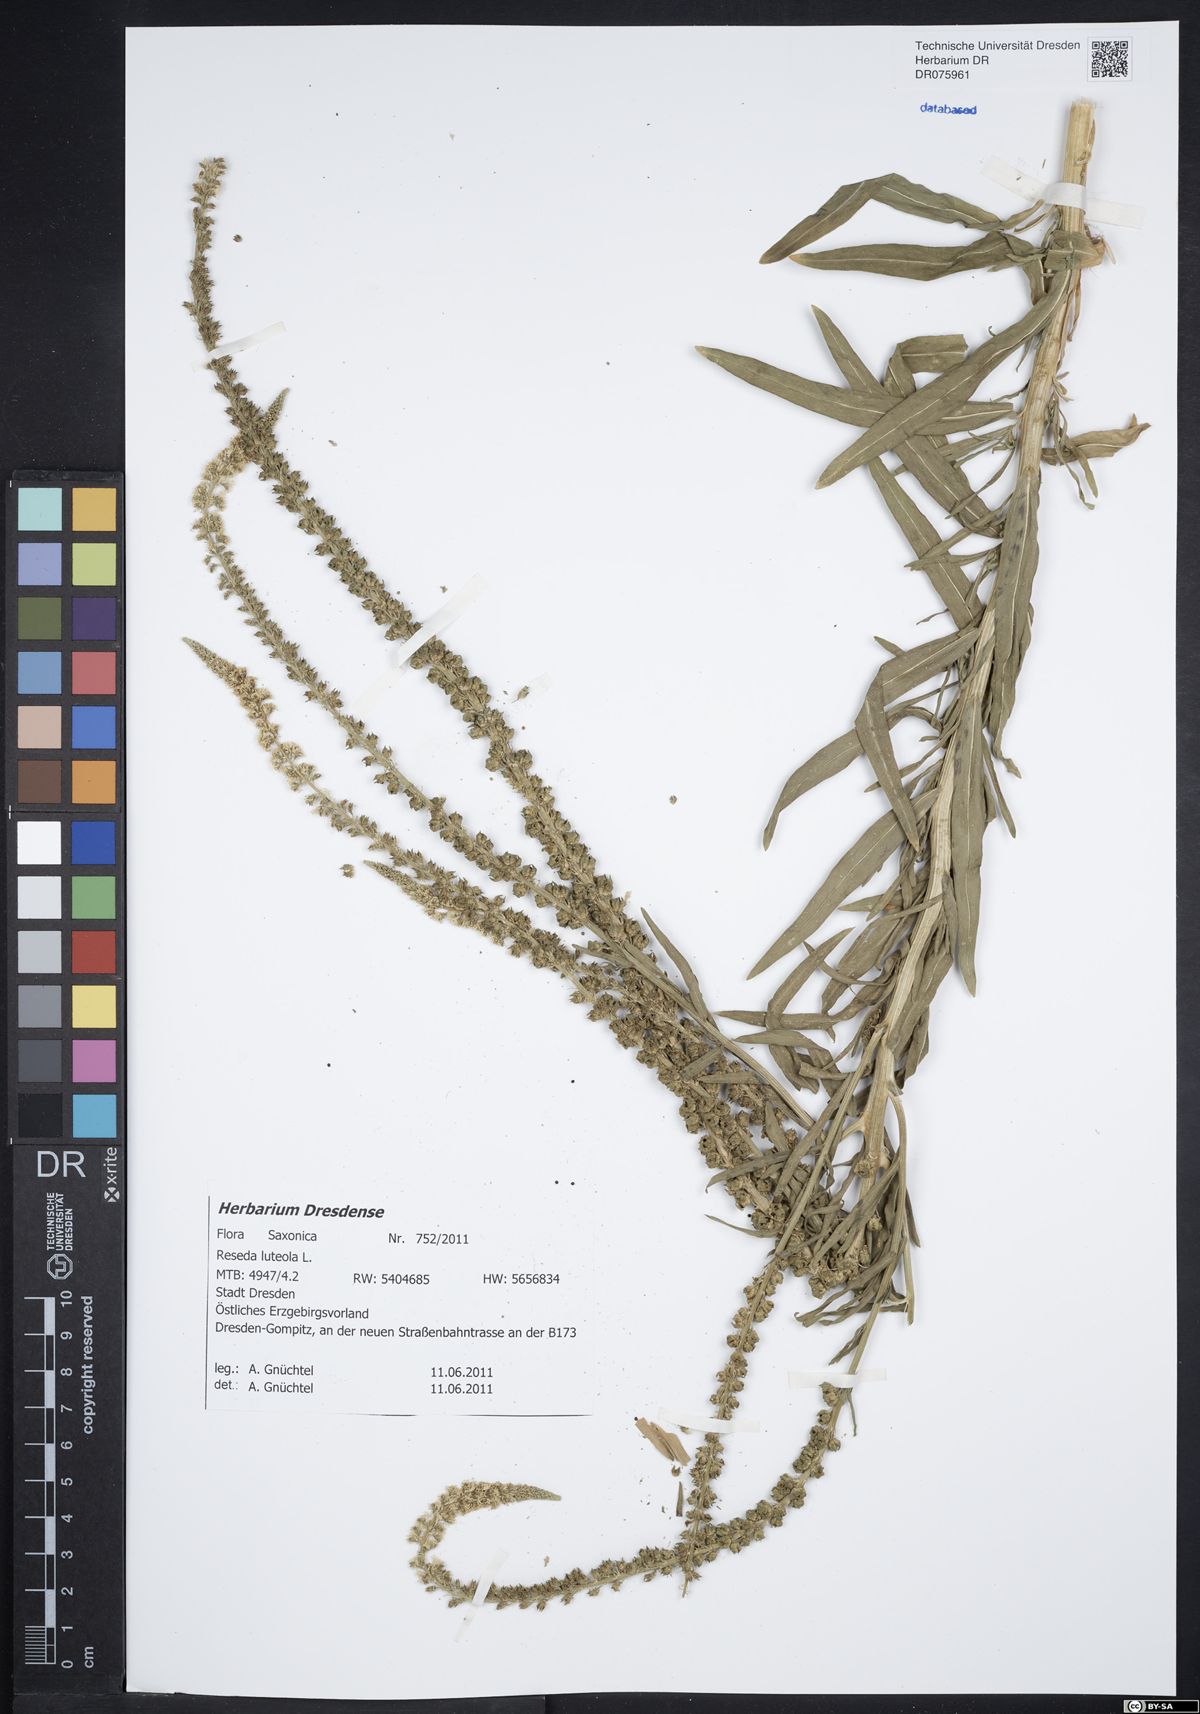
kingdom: Plantae
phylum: Tracheophyta
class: Magnoliopsida
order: Brassicales
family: Resedaceae
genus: Reseda
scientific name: Reseda luteola
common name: Weld
